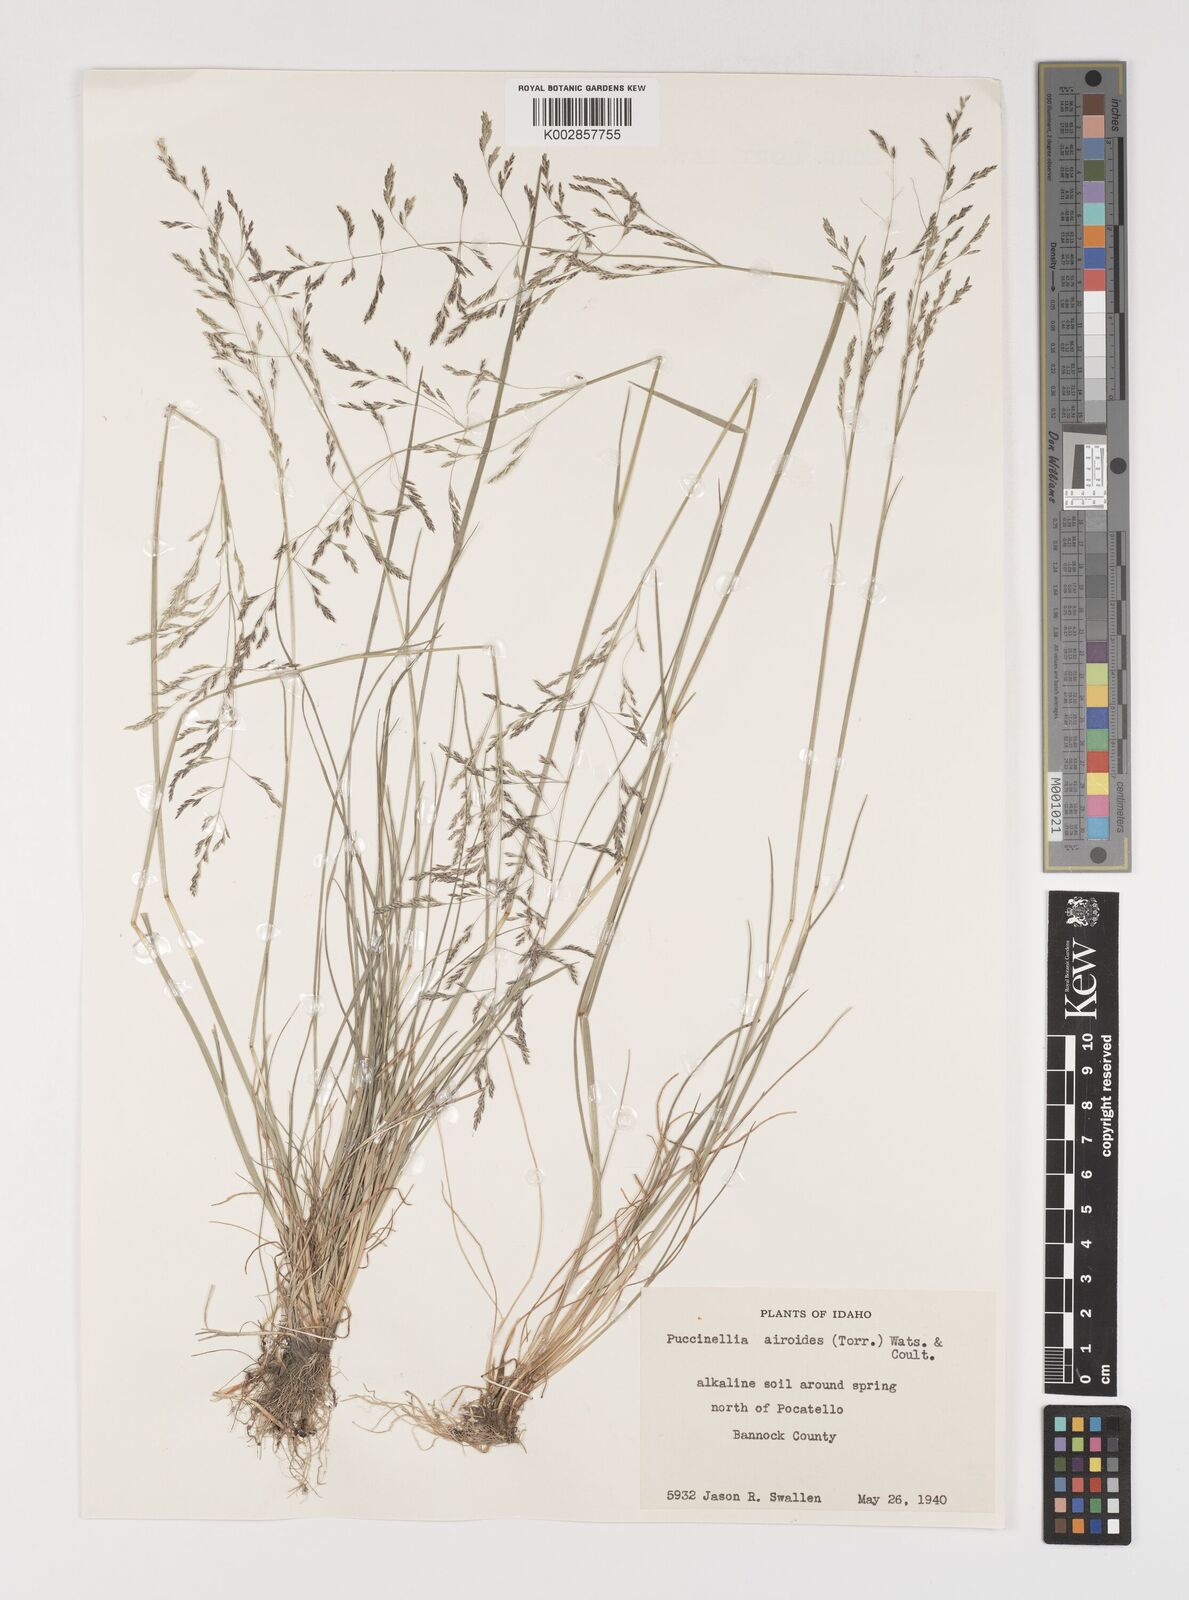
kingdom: Plantae
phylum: Tracheophyta
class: Liliopsida
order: Poales
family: Poaceae
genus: Puccinellia
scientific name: Puccinellia nuttalliana
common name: Nuttall's alkali grass
